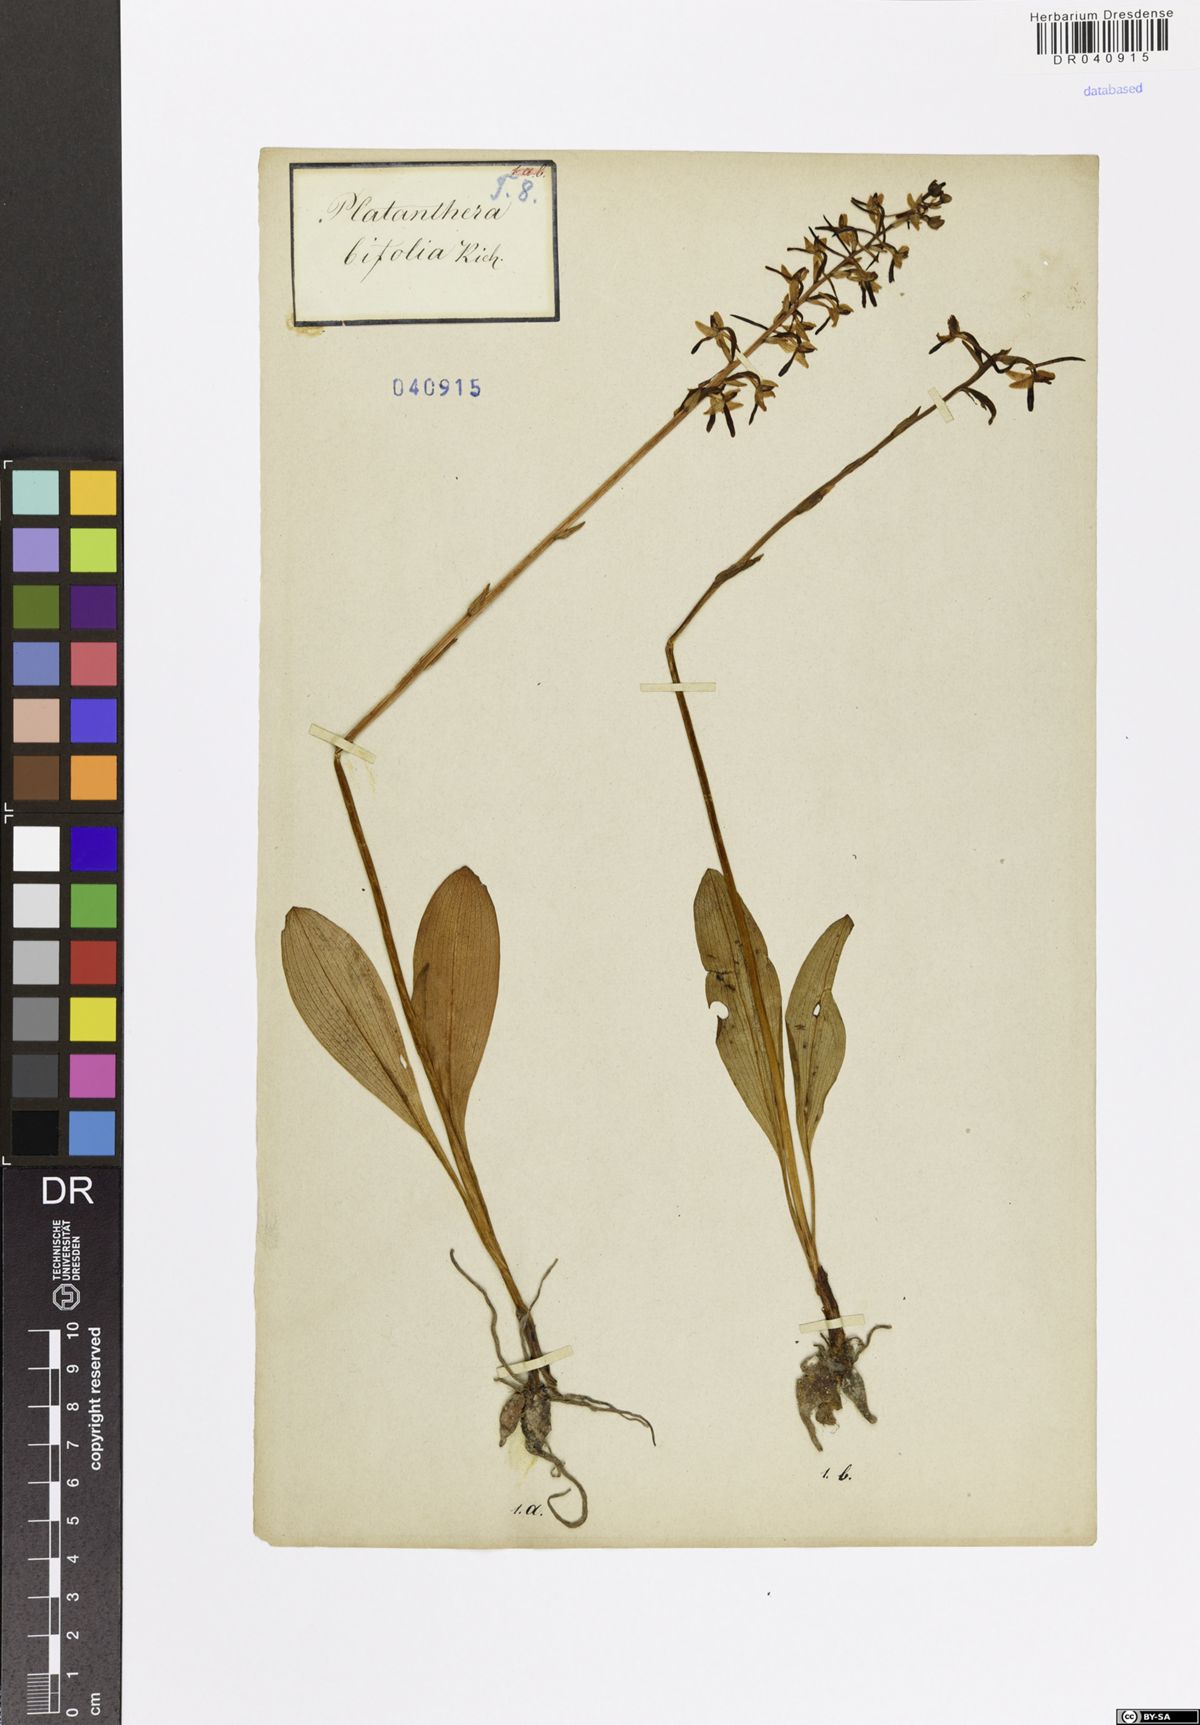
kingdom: Plantae
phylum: Tracheophyta
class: Liliopsida
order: Asparagales
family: Orchidaceae
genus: Platanthera
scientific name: Platanthera bifolia
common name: Lesser butterfly-orchid
